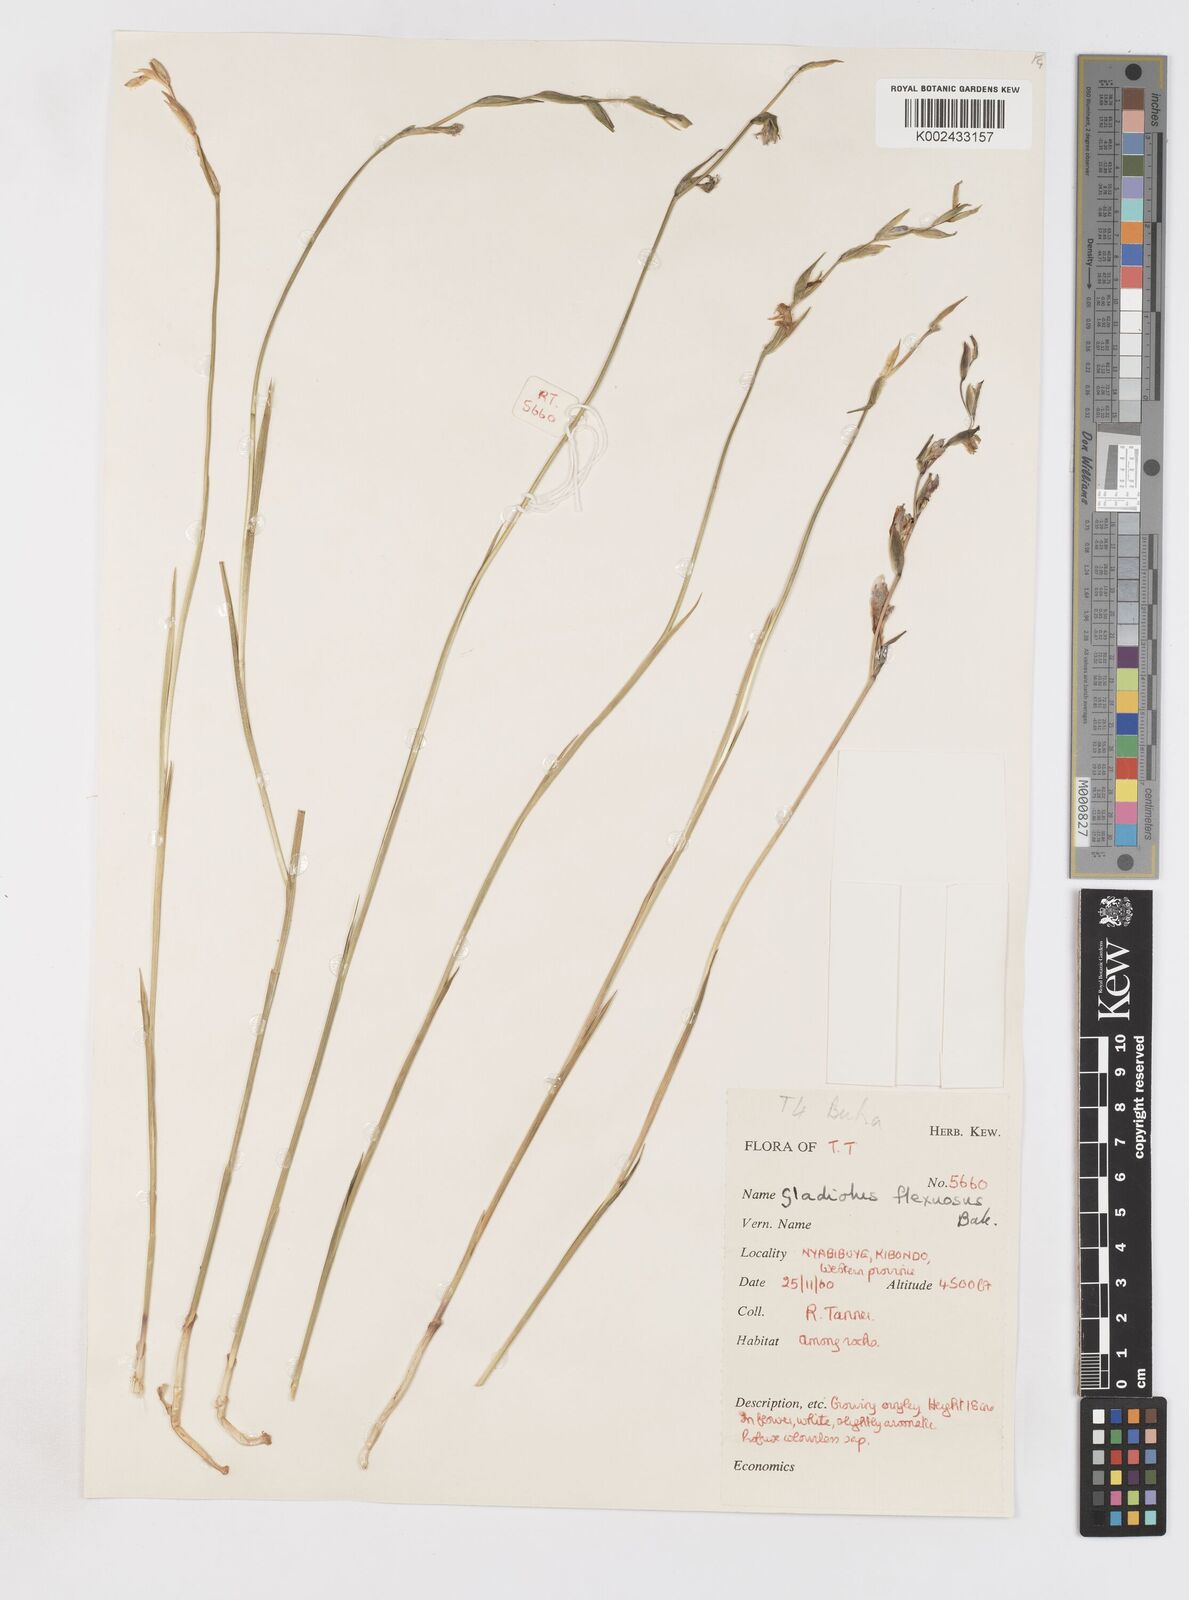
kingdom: Plantae
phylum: Tracheophyta
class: Liliopsida
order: Asparagales
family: Iridaceae
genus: Gladiolus
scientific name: Gladiolus atropurpureus
